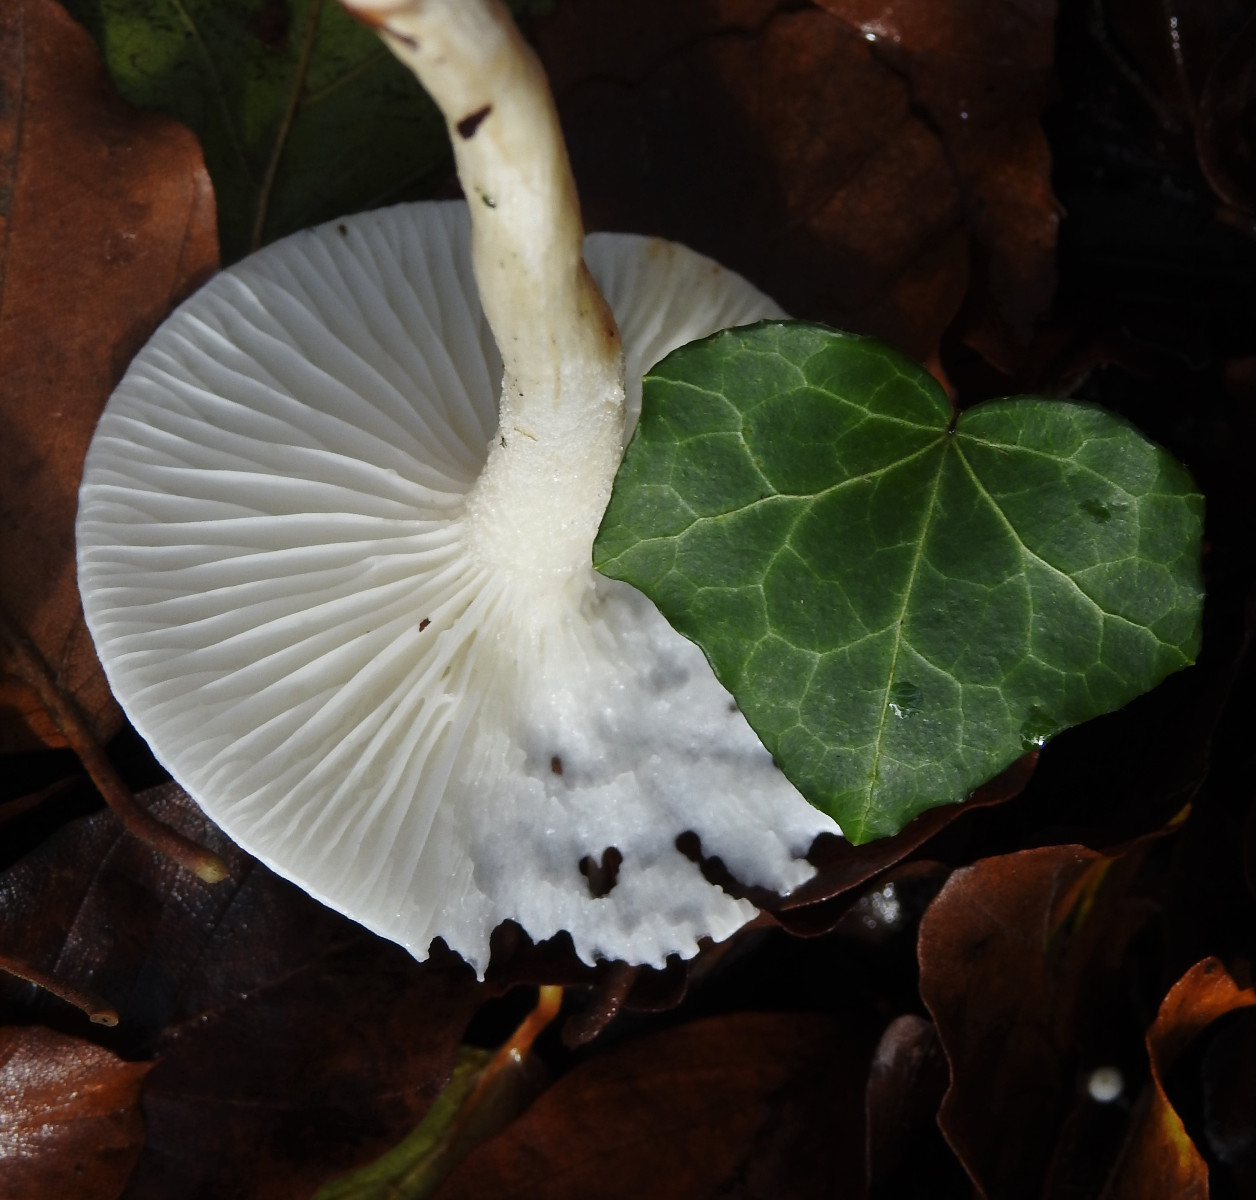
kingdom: Fungi
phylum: Basidiomycota
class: Agaricomycetes
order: Agaricales
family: Hygrophoraceae
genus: Hygrophorus
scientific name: Hygrophorus
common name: sneglehat
